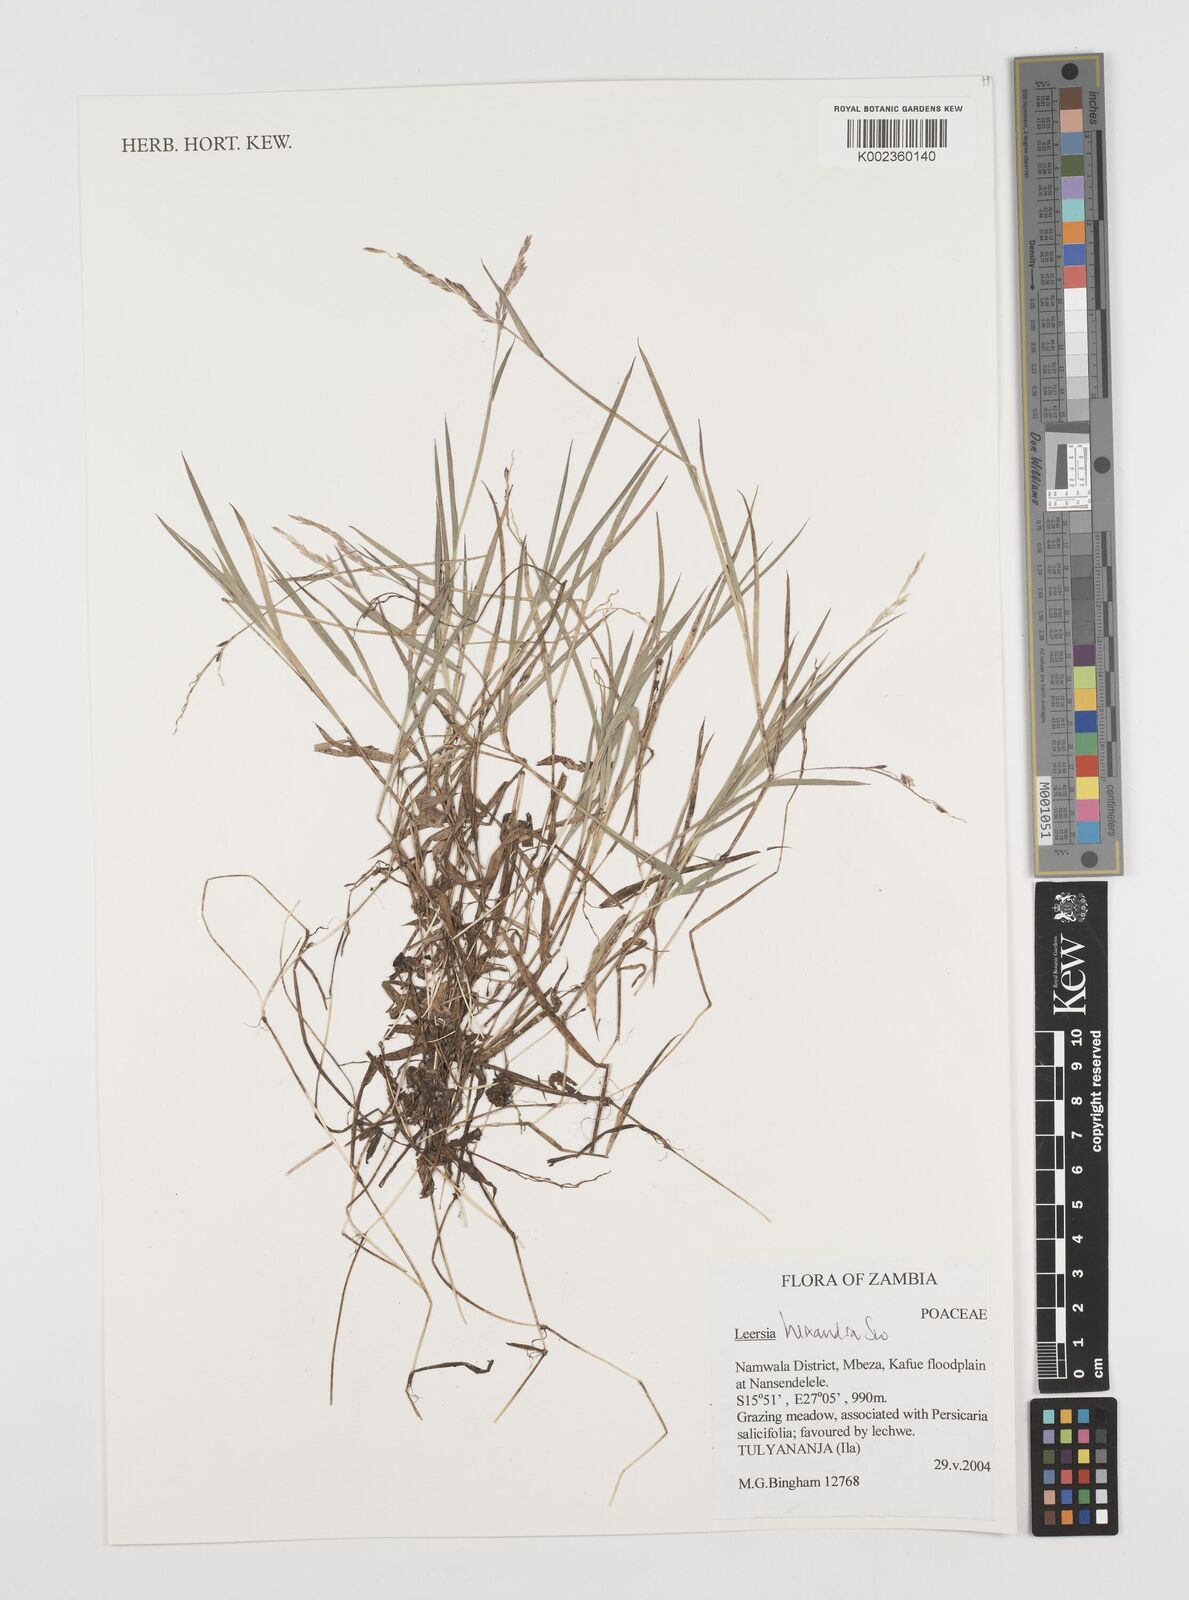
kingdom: Plantae
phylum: Tracheophyta
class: Liliopsida
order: Poales
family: Poaceae
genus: Leersia
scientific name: Leersia hexandra
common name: Southern cut grass
